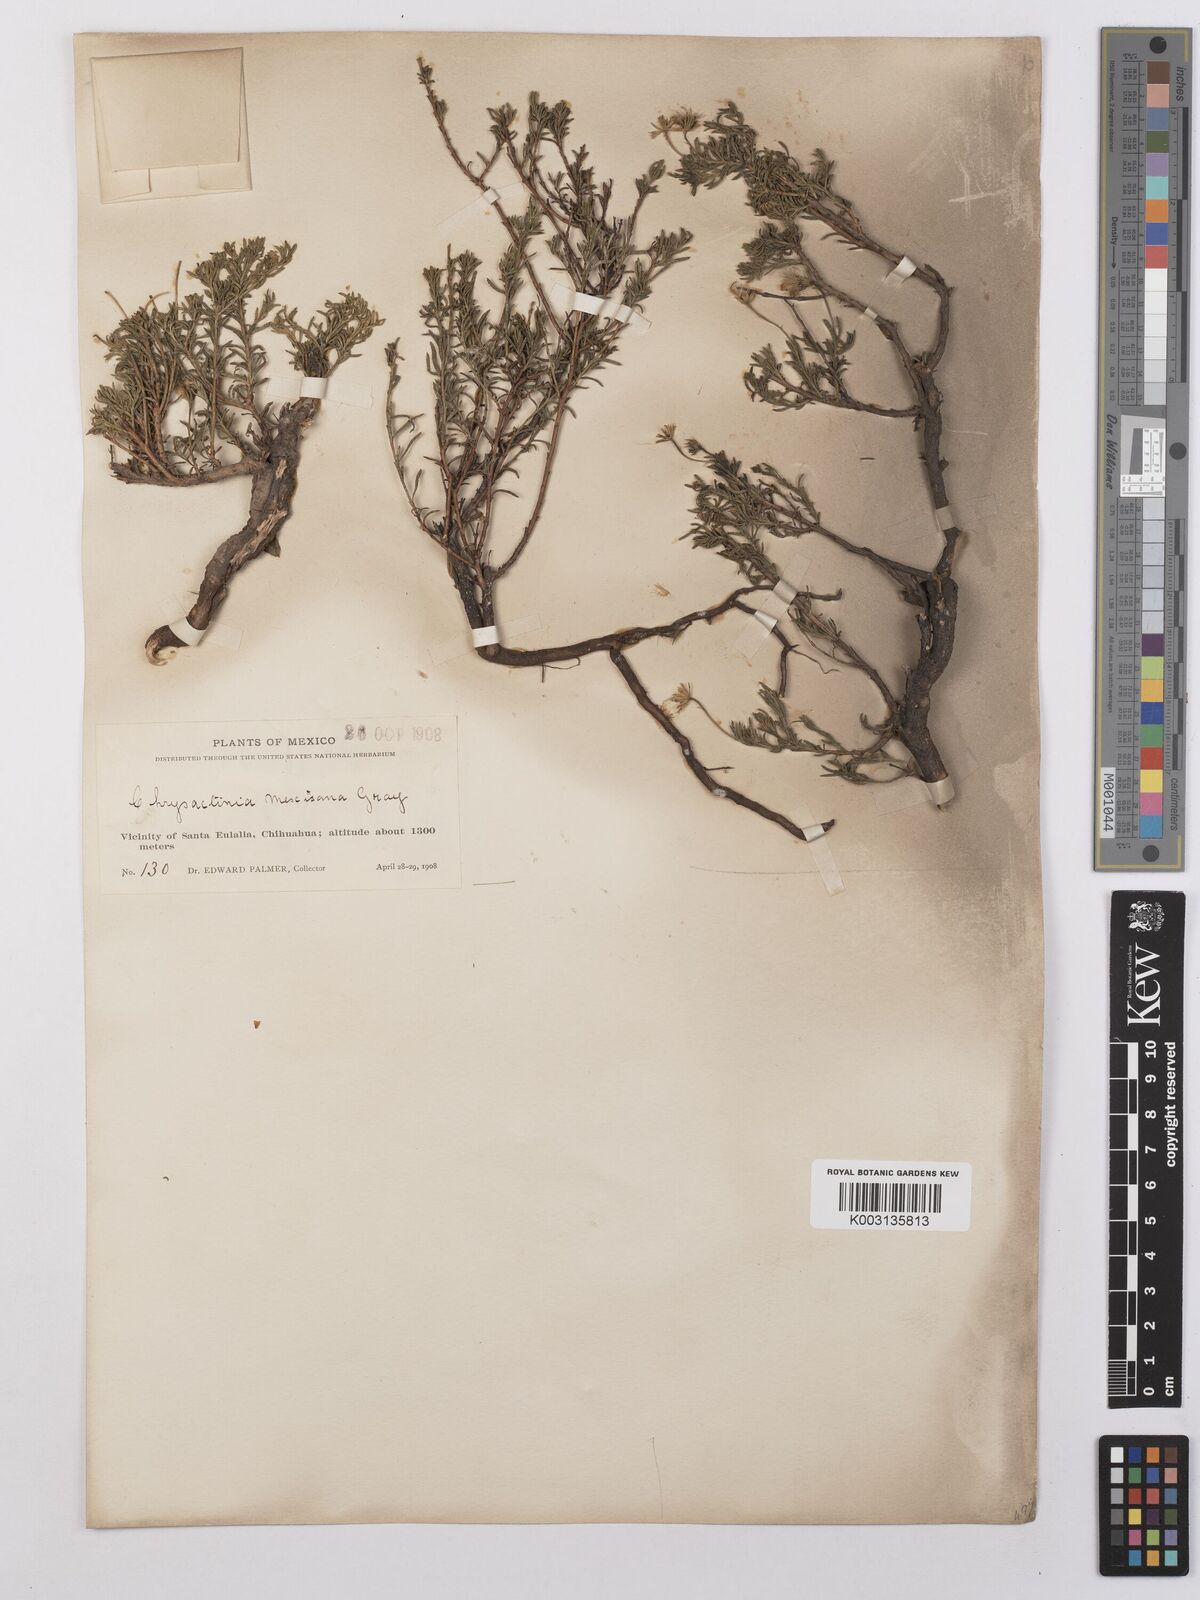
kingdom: Plantae
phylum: Tracheophyta
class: Magnoliopsida
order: Asterales
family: Asteraceae
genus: Chrysactinia
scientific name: Chrysactinia mexicana
